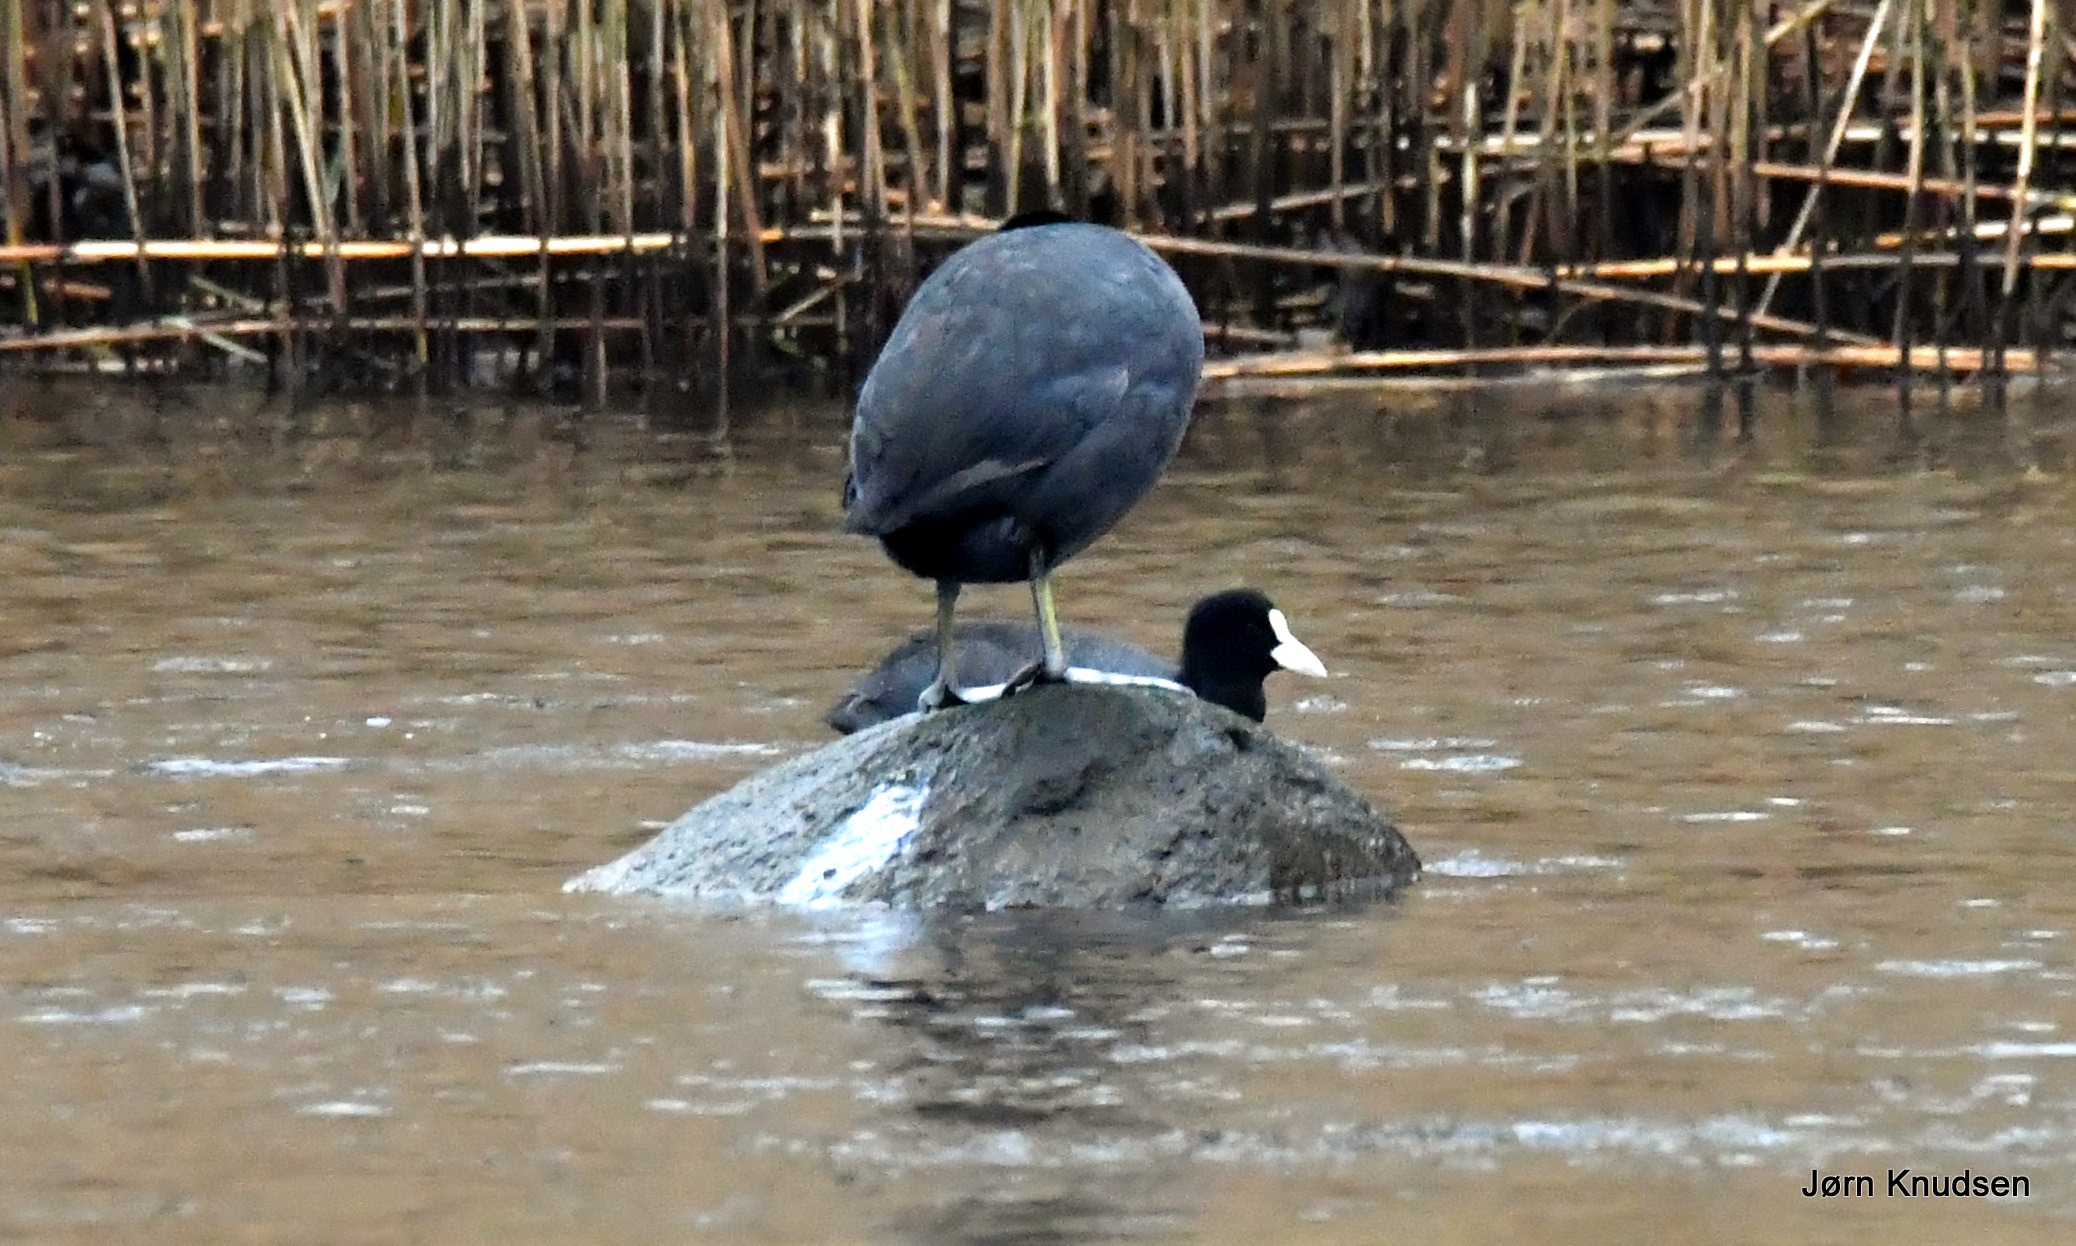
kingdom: Animalia
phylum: Chordata
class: Aves
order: Gruiformes
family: Rallidae
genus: Fulica
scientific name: Fulica atra
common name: Blishøne
